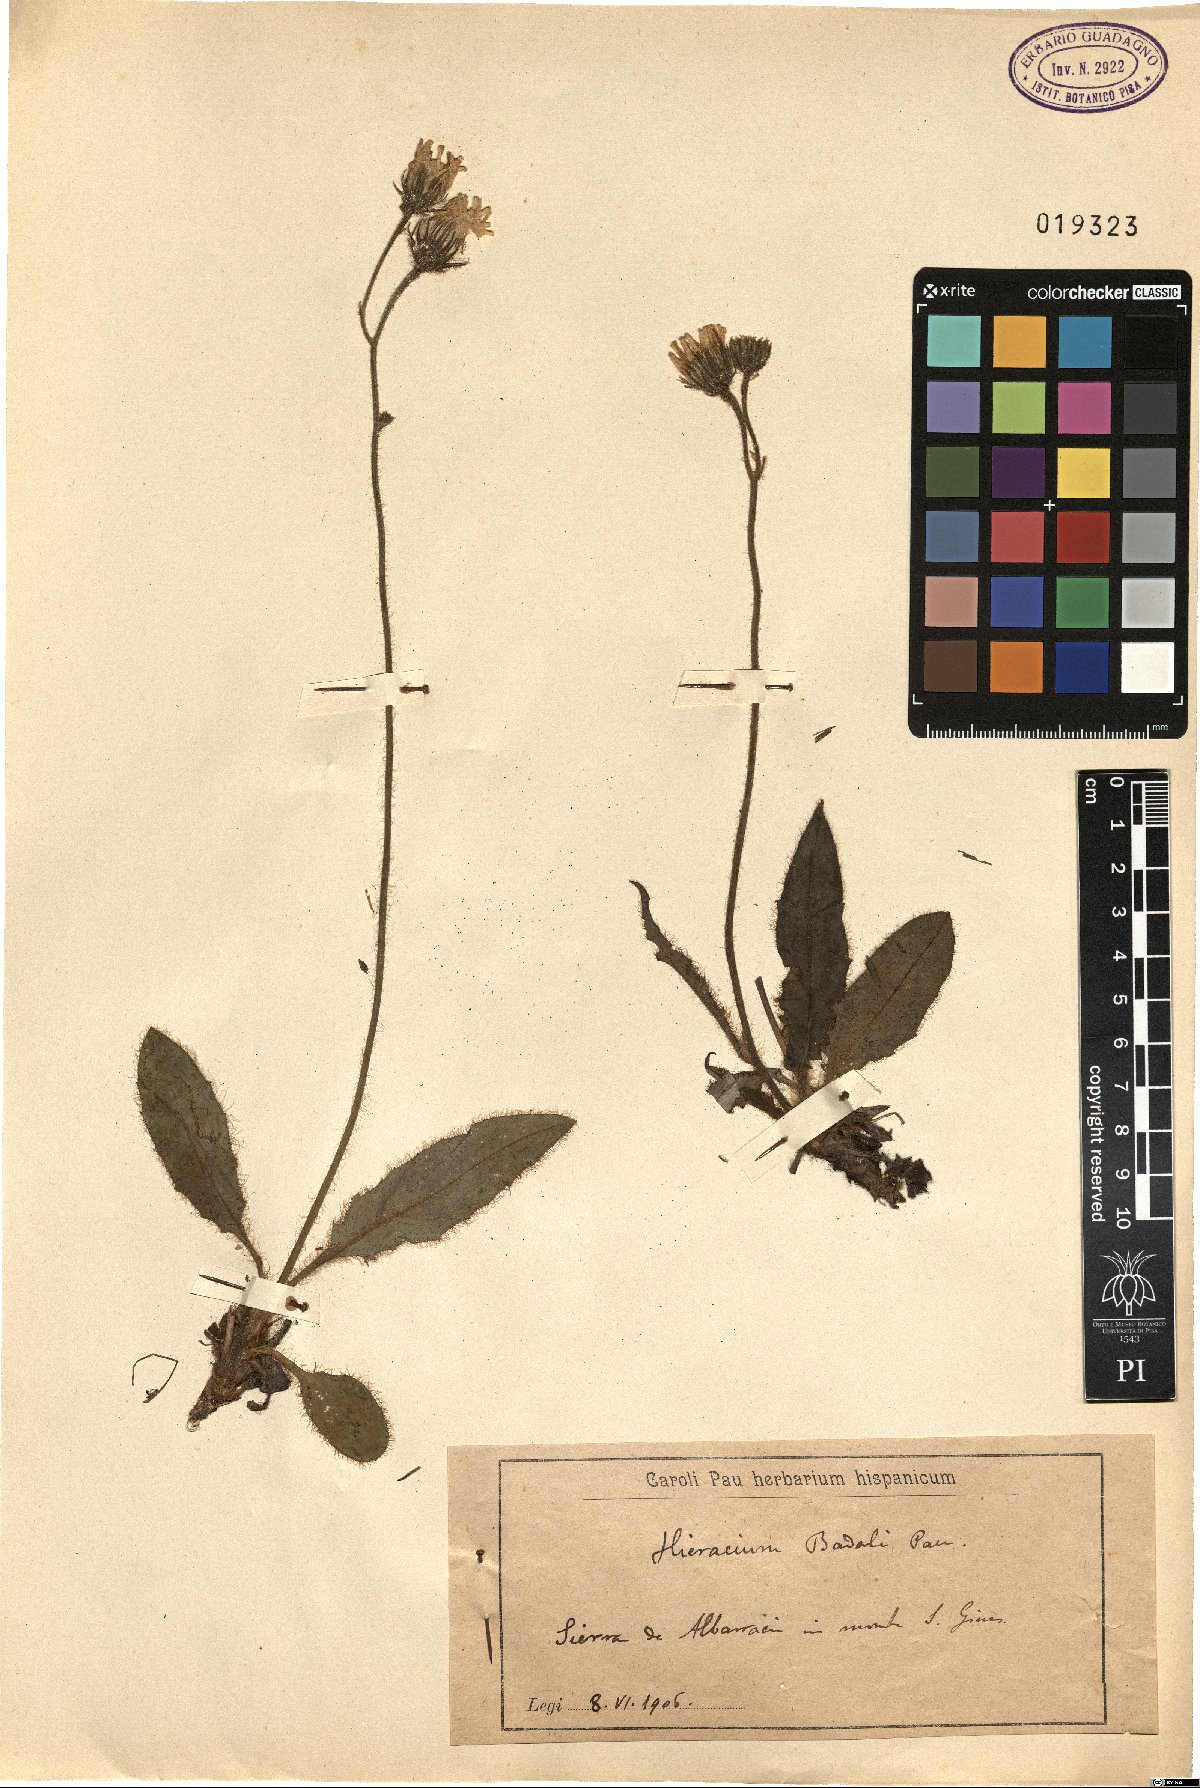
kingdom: Plantae
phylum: Tracheophyta
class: Magnoliopsida
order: Asterales
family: Asteraceae
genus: Hieracium
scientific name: Hieracium glaucinum
